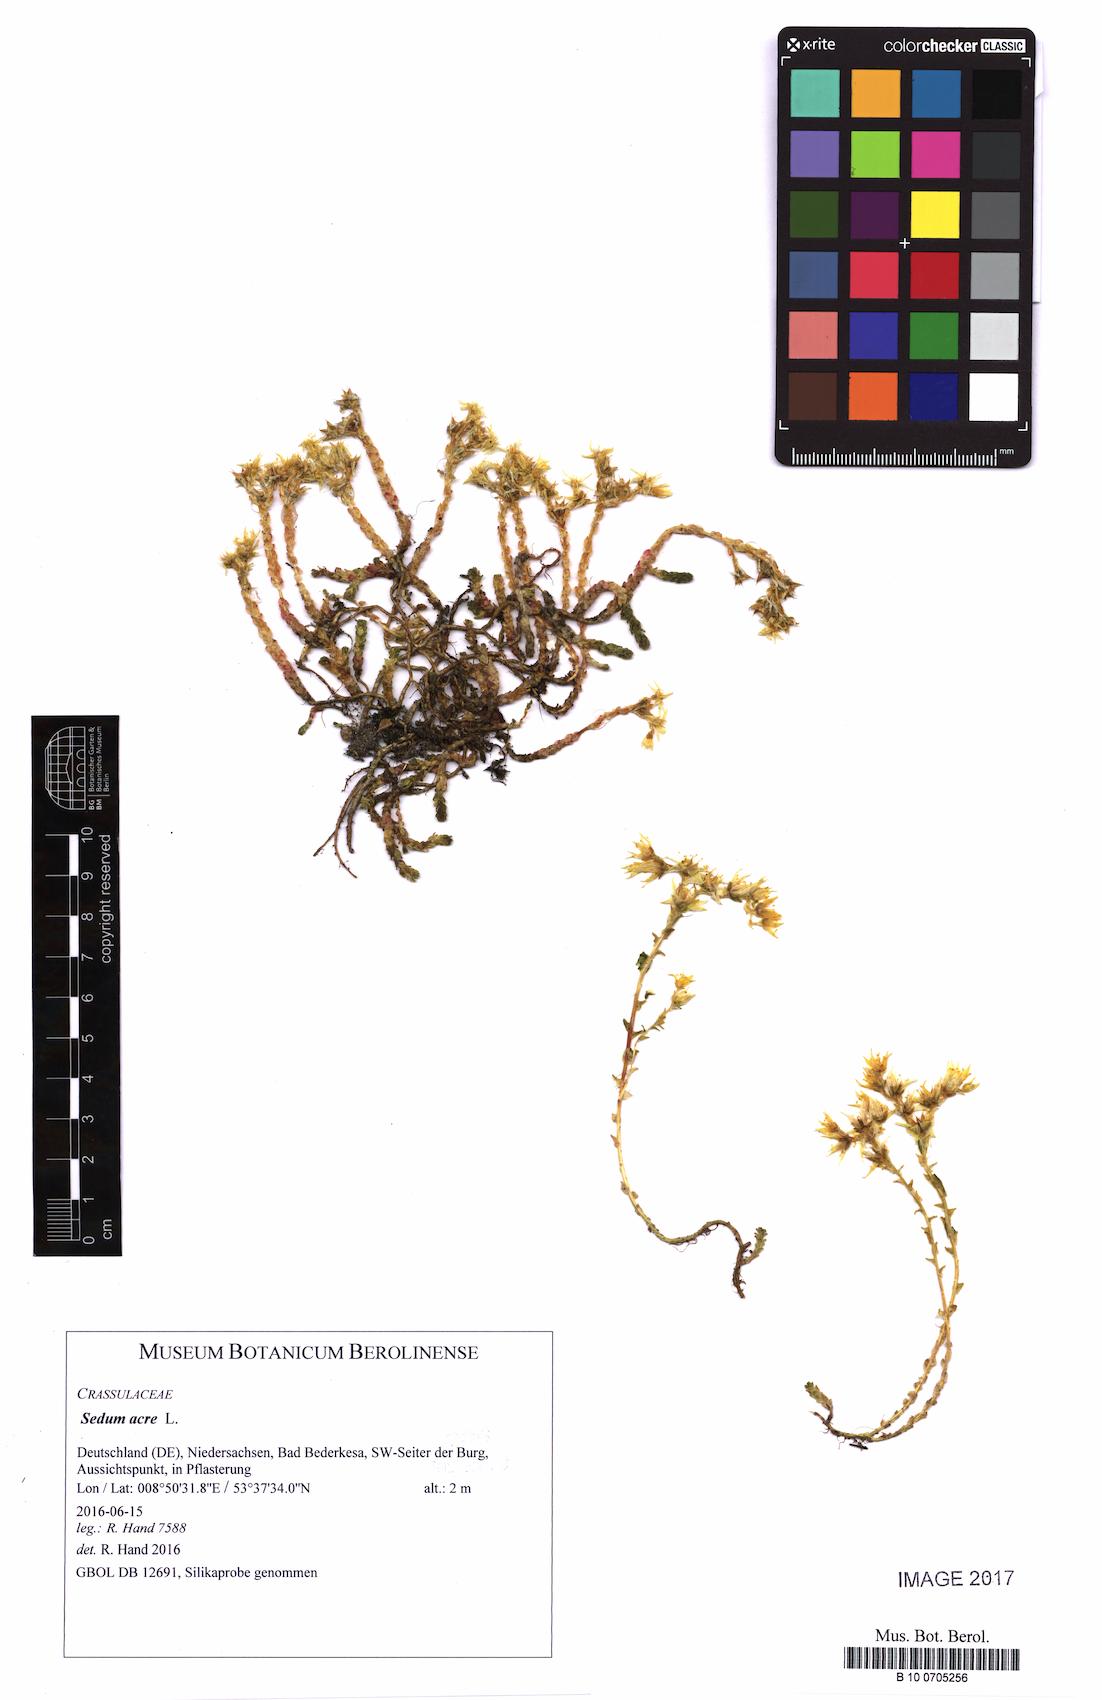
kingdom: Plantae
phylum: Tracheophyta
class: Magnoliopsida
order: Saxifragales
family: Crassulaceae
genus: Sedum
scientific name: Sedum acre
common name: Biting stonecrop
